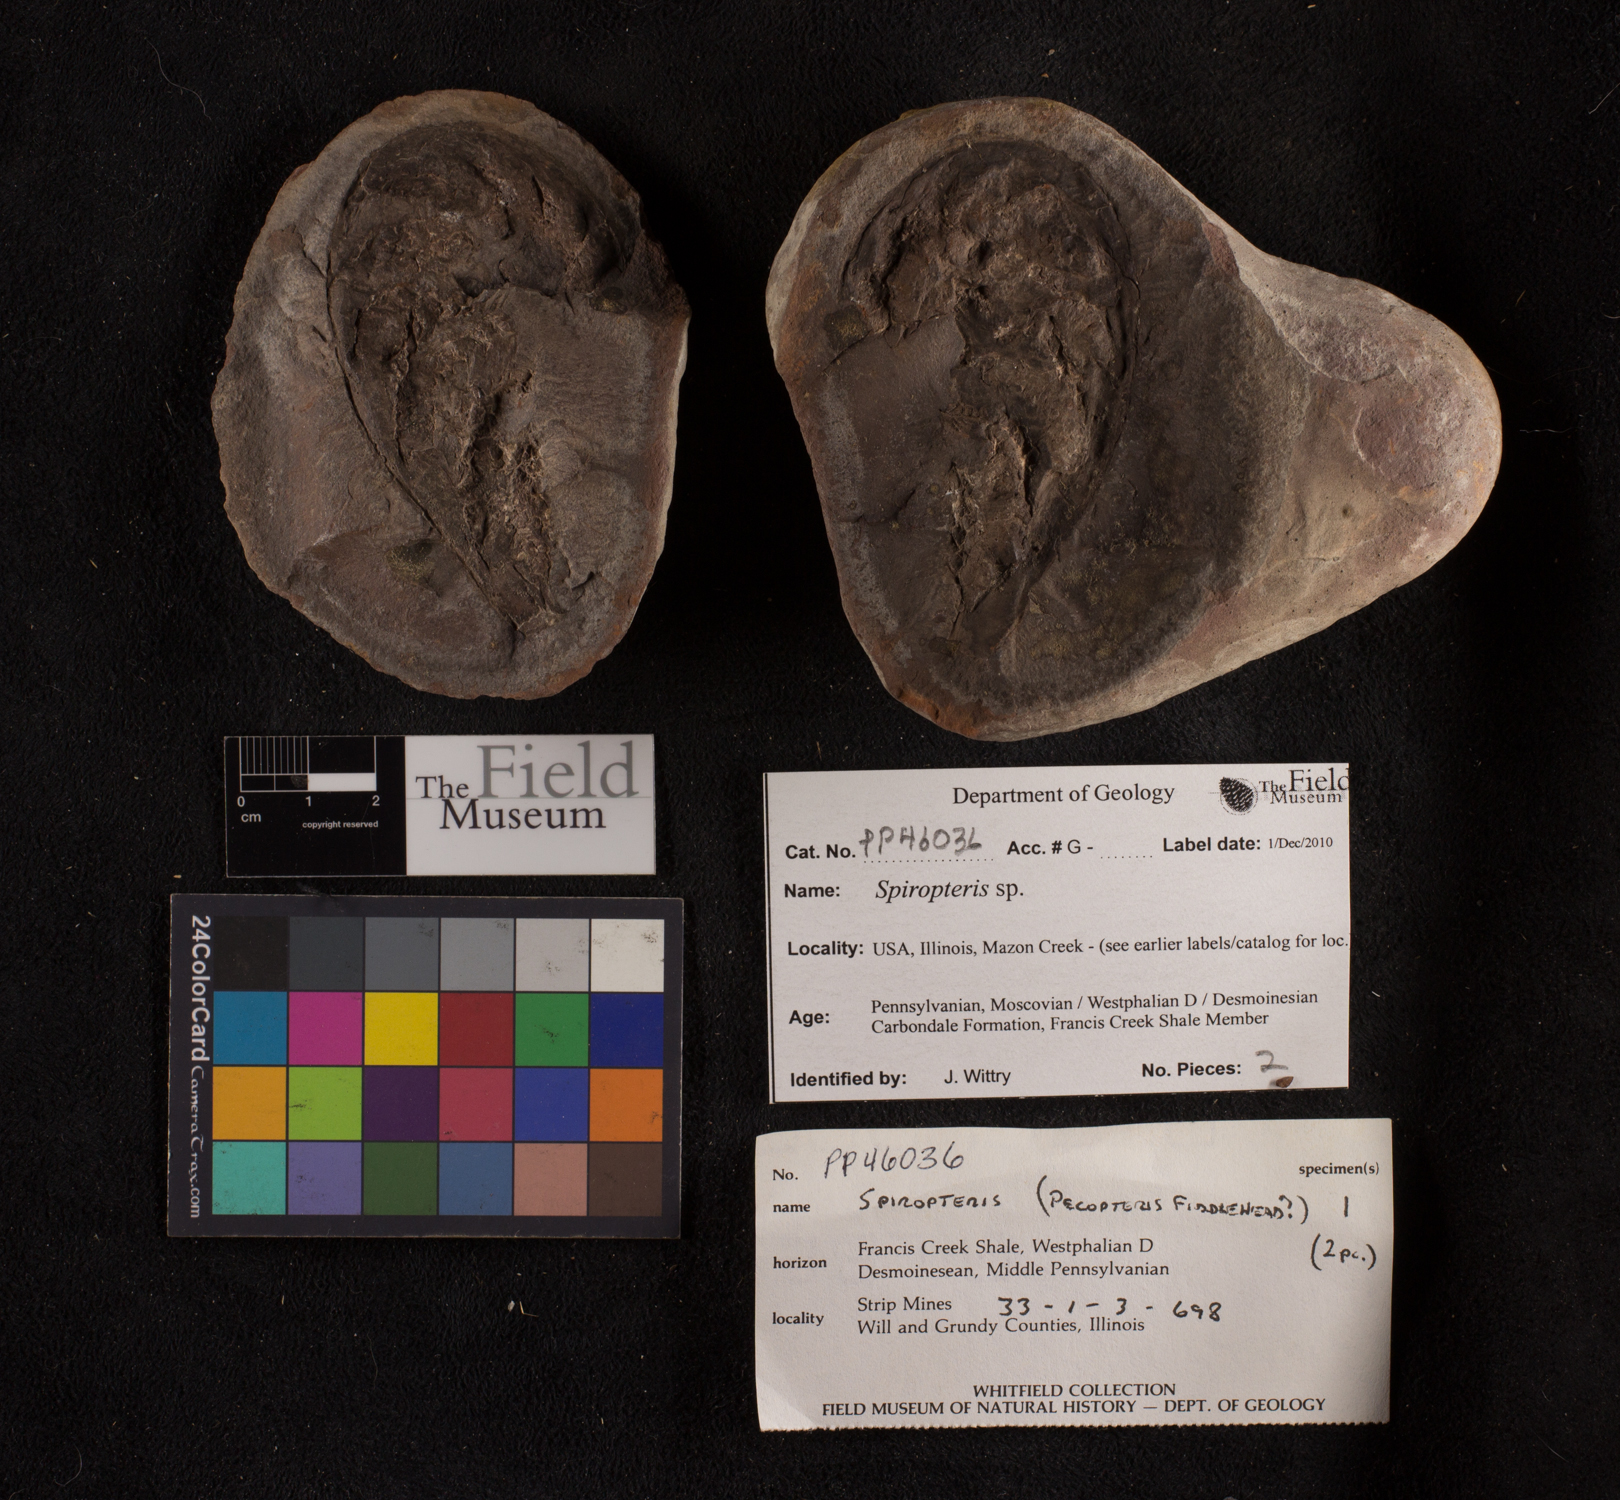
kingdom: Plantae
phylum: Tracheophyta
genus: Spiropteris
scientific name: Spiropteris
